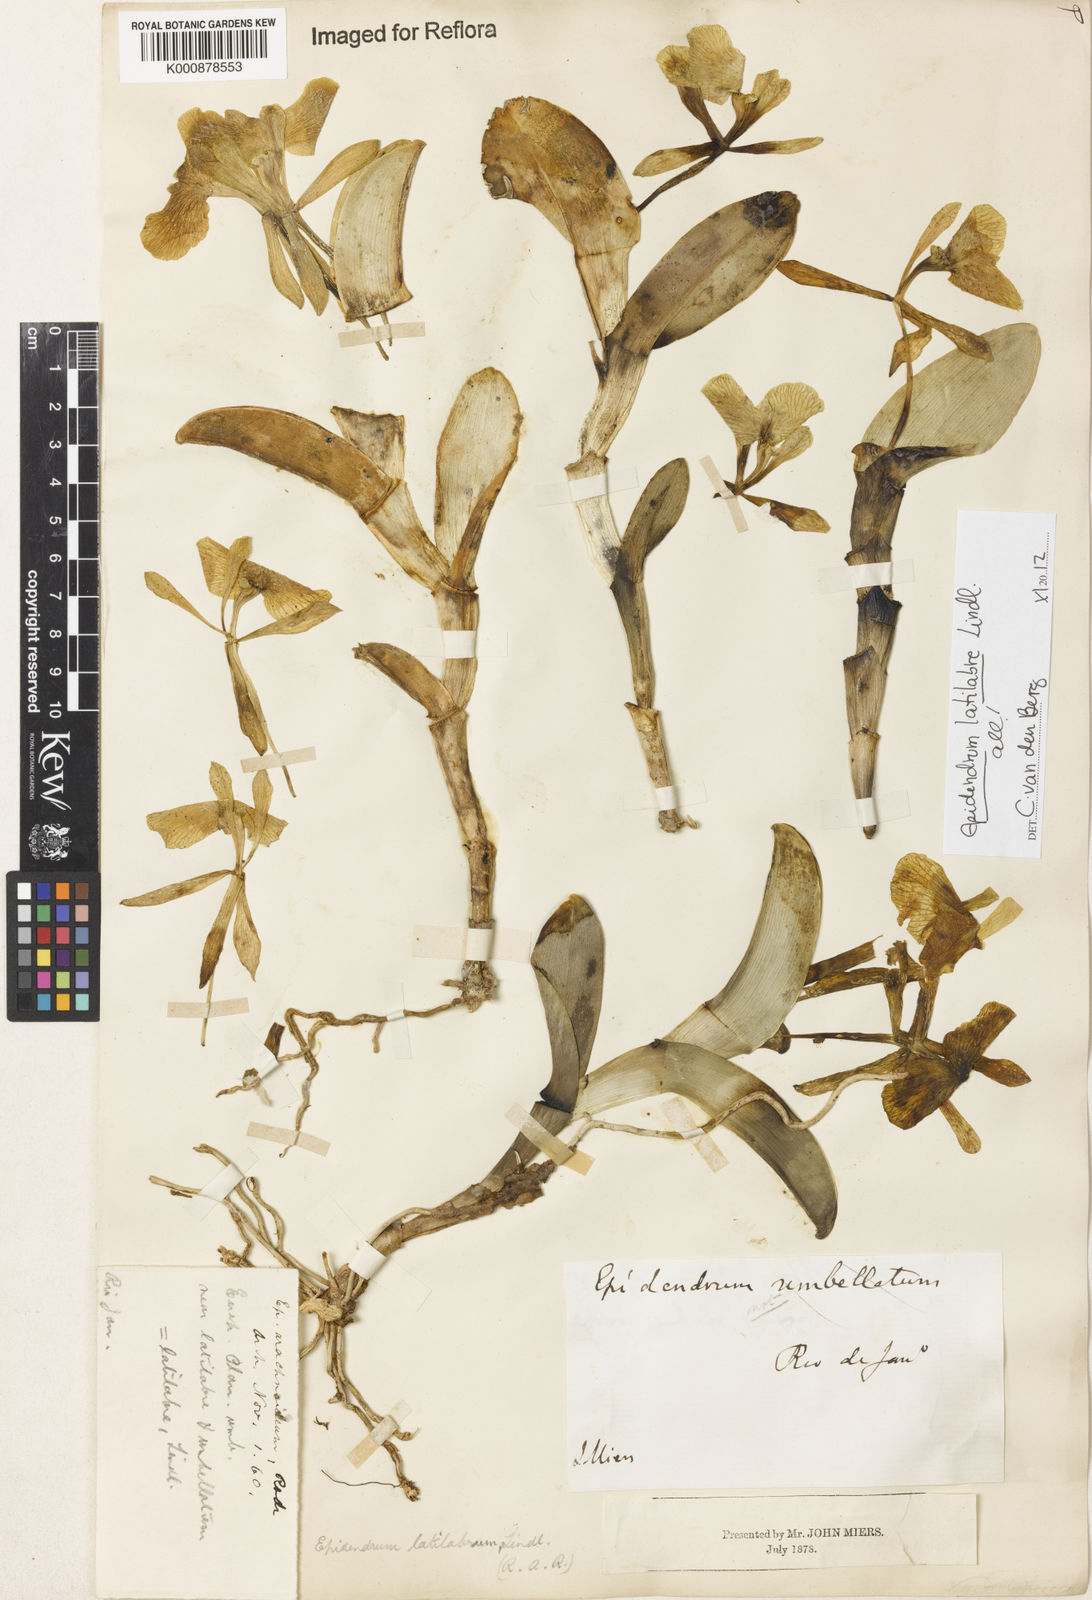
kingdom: Plantae
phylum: Tracheophyta
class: Liliopsida
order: Asparagales
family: Orchidaceae
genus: Epidendrum
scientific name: Epidendrum latilabre
